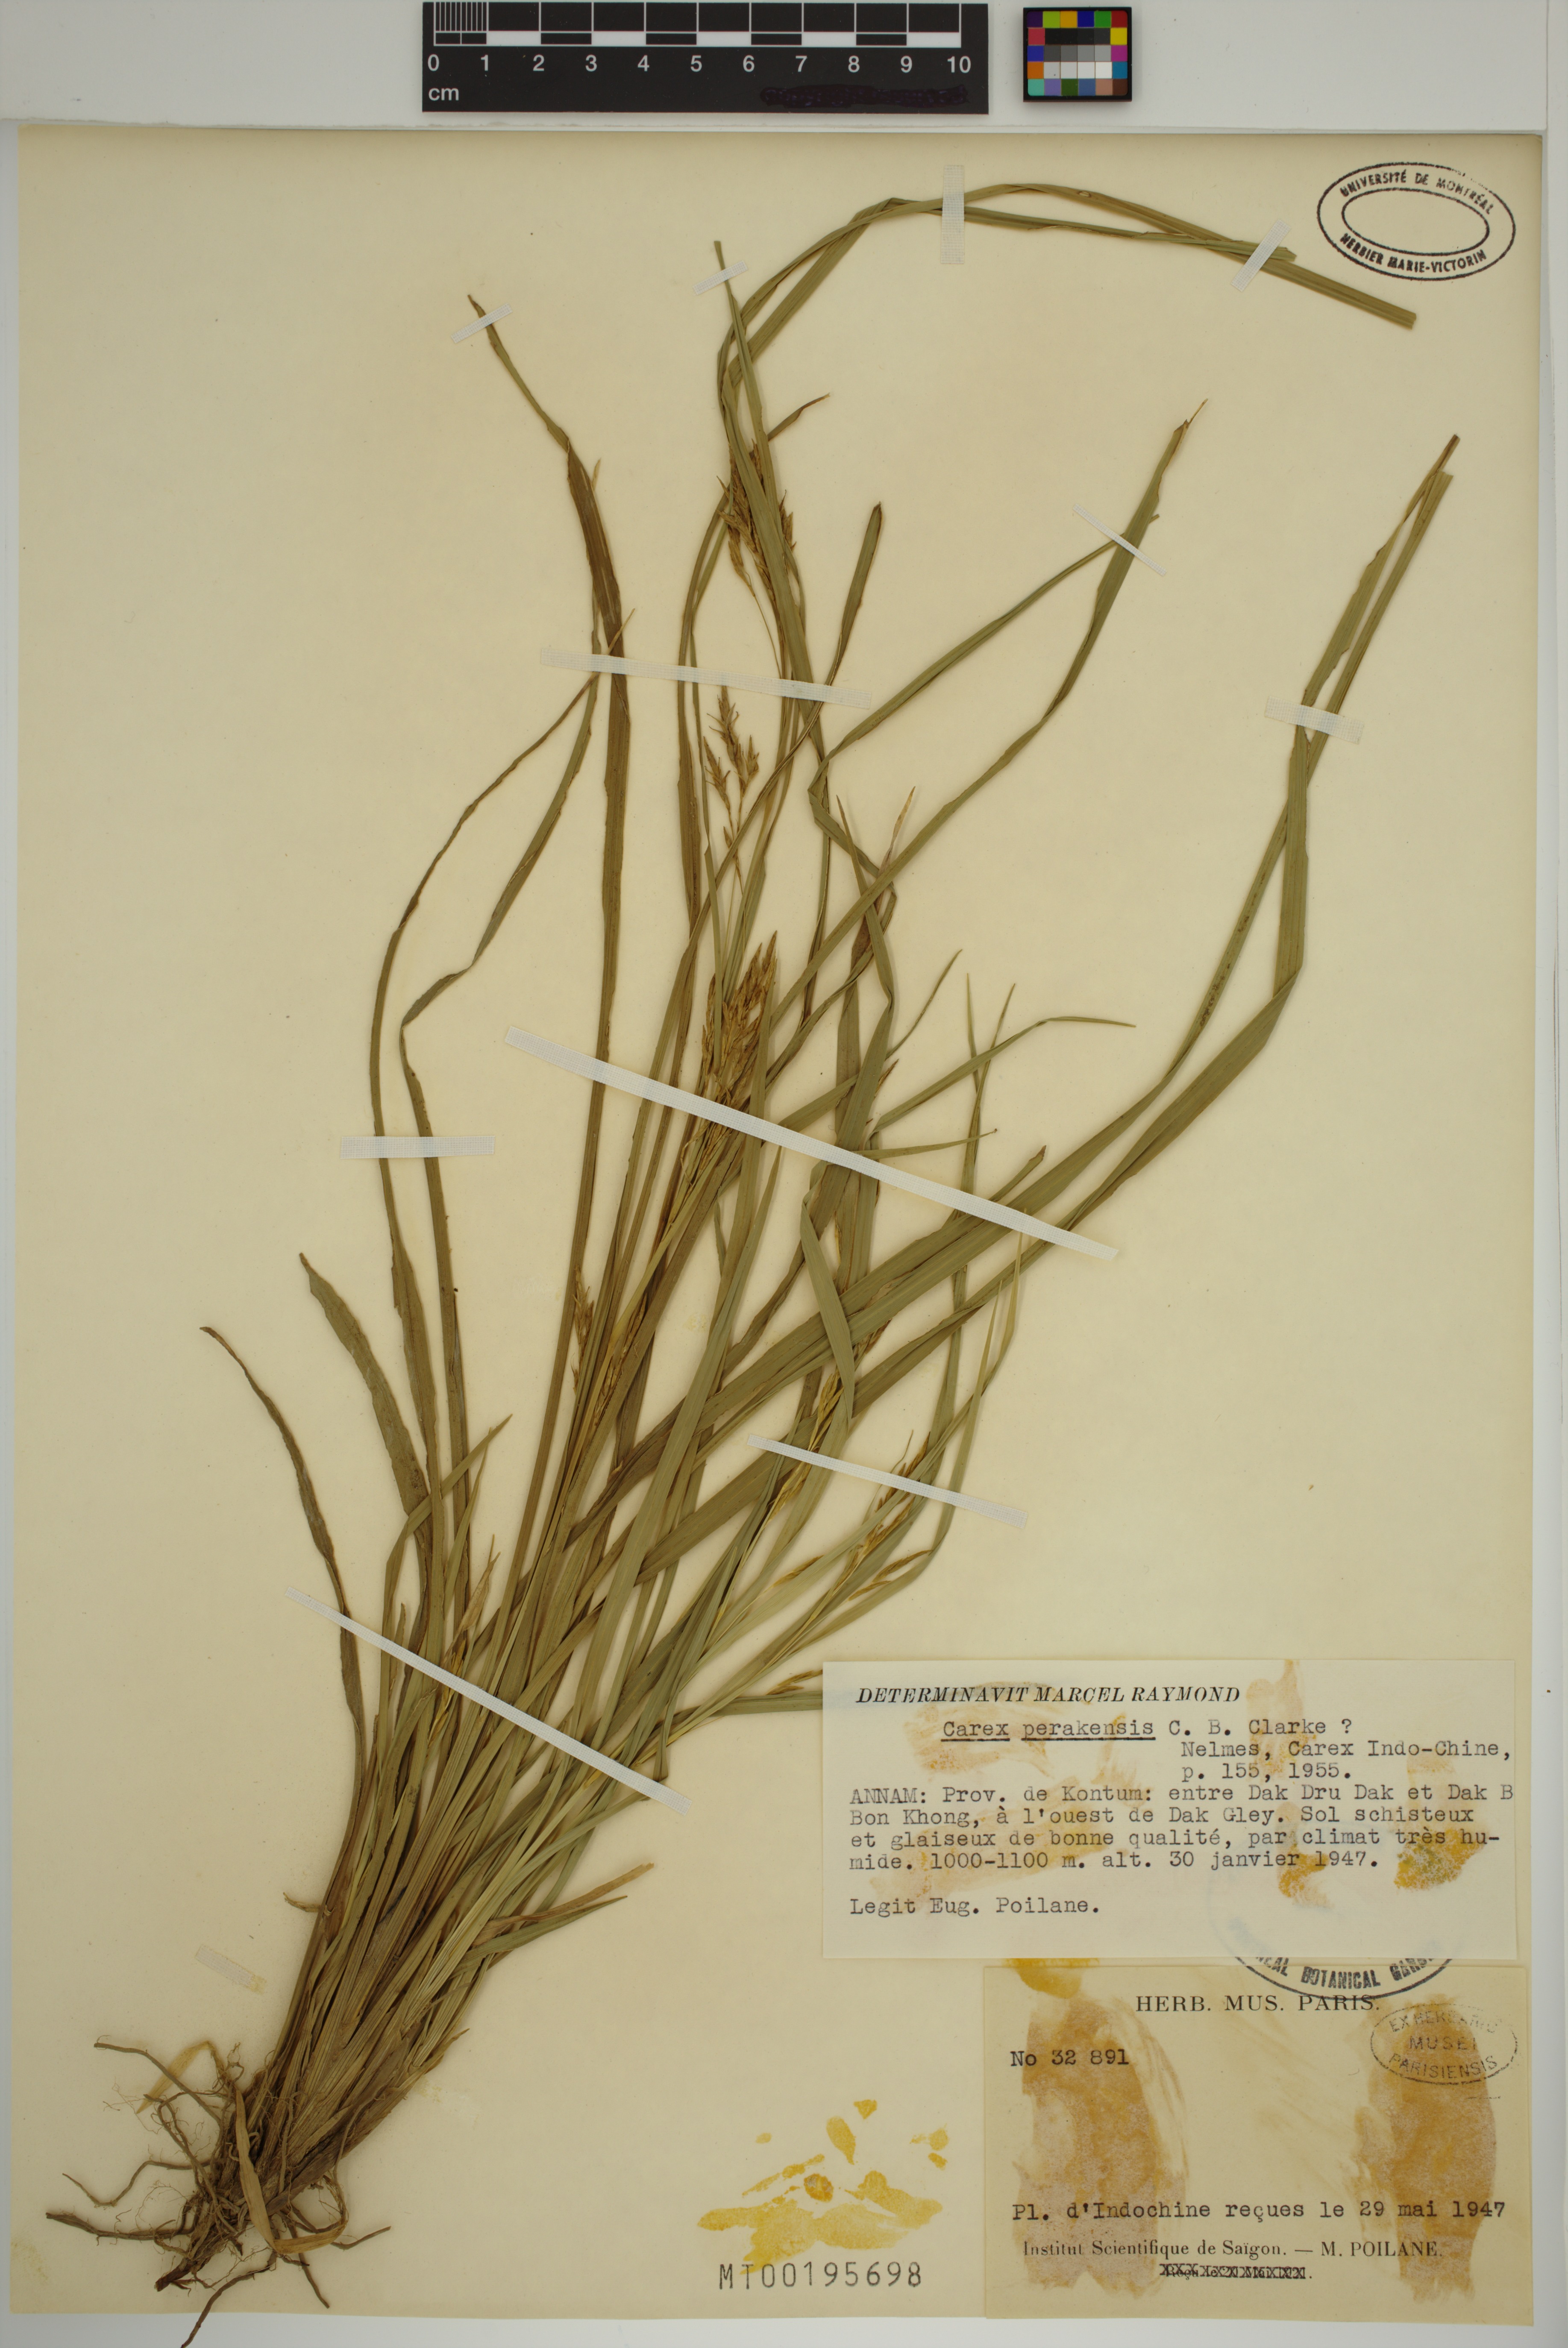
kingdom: Plantae
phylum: Tracheophyta
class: Liliopsida
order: Poales
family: Cyperaceae
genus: Carex
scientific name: Carex perakensis
